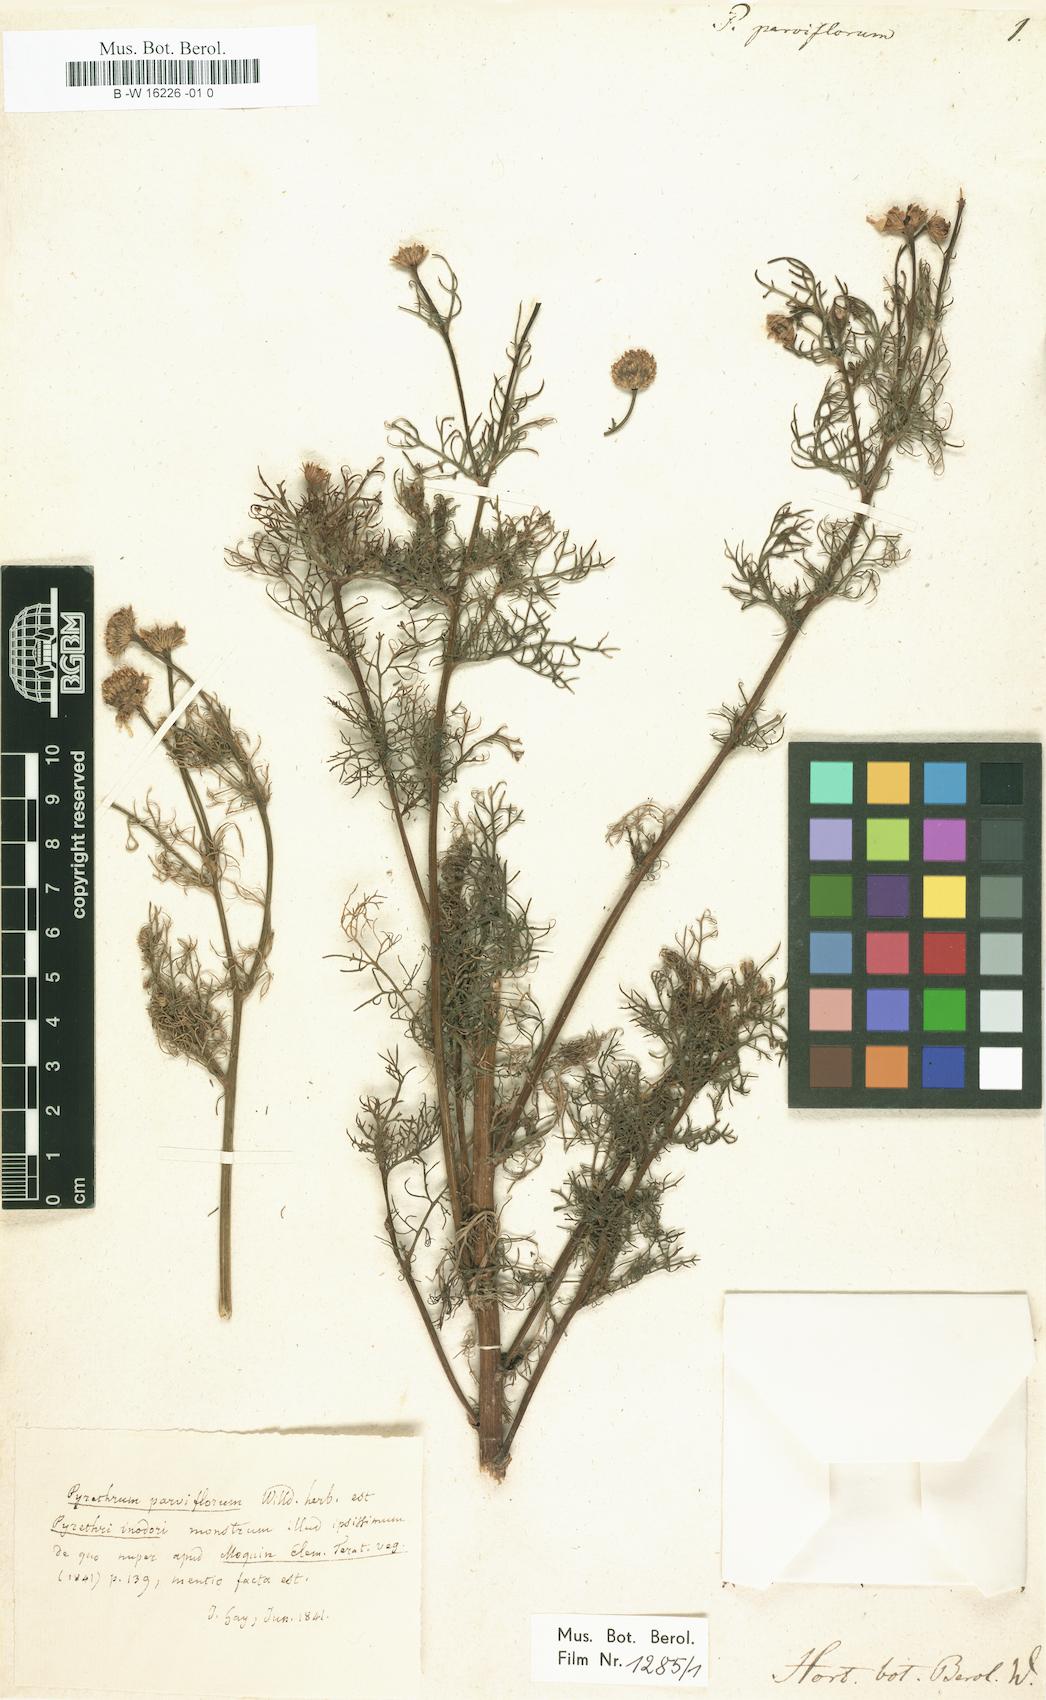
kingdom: Plantae
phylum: Tracheophyta
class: Magnoliopsida
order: Asterales
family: Asteraceae
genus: Tripleurospermum
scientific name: Tripleurospermum parviflorum
